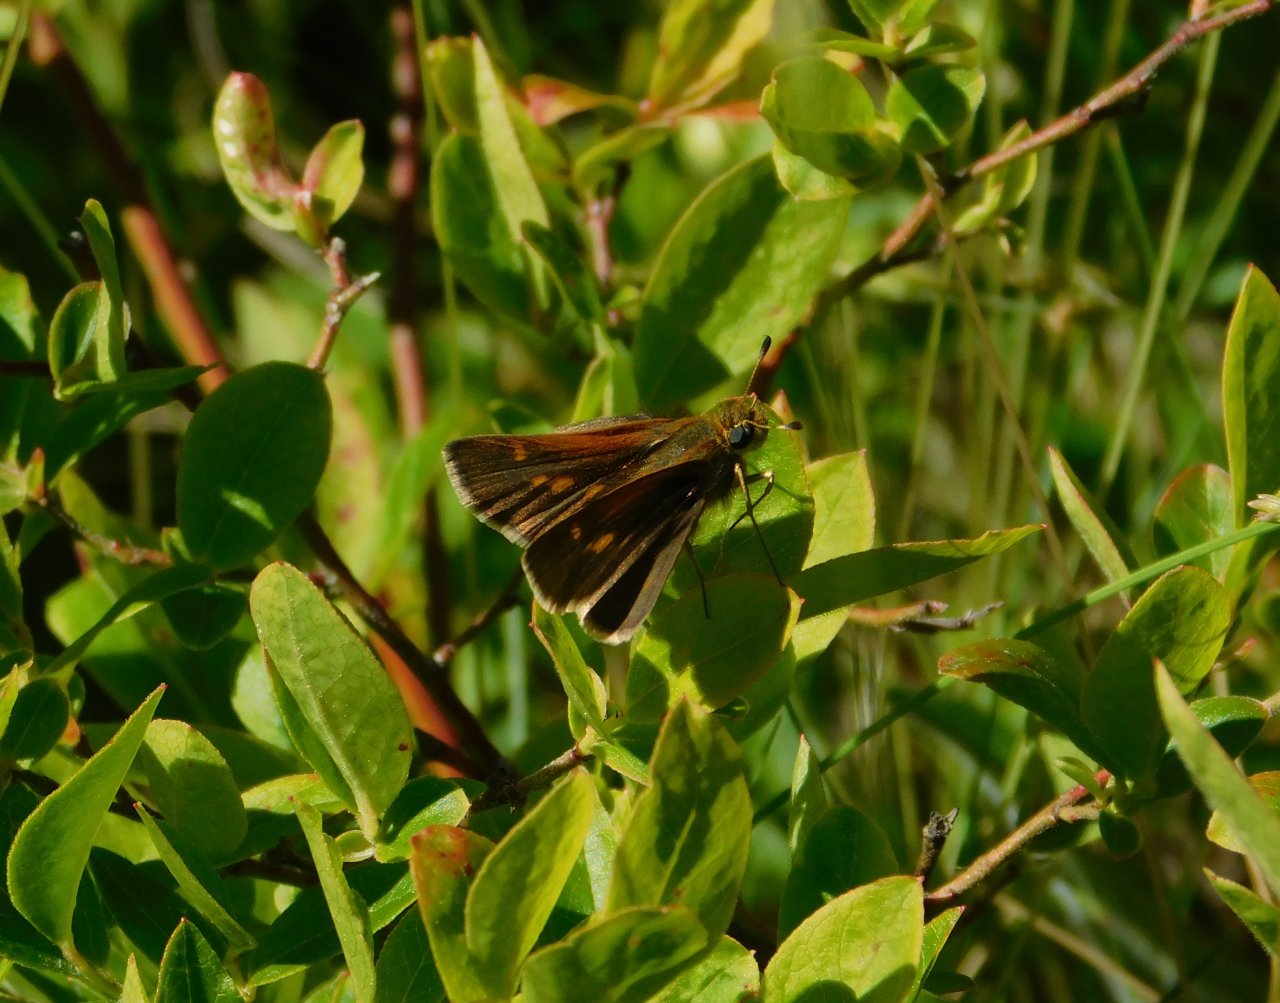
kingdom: Animalia
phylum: Arthropoda
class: Insecta
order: Lepidoptera
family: Hesperiidae
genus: Polites
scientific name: Polites themistocles
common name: Tawny-edged Skipper
